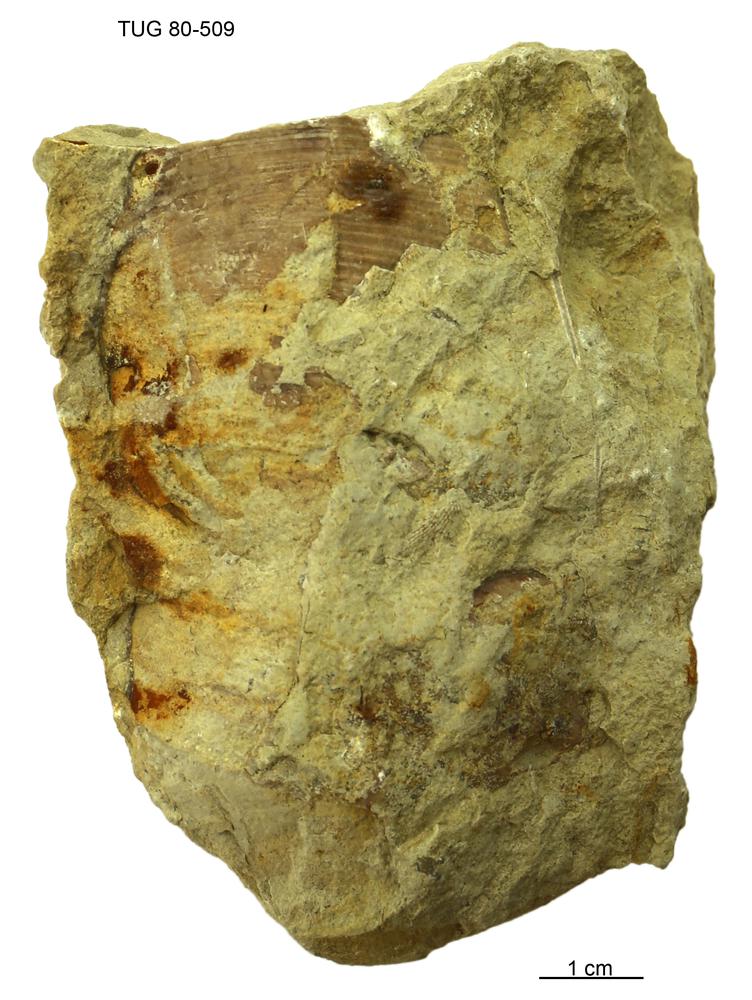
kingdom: Animalia
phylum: Mollusca
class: Cephalopoda
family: Protophragmoceratidae
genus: Protophragmoceras
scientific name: Protophragmoceras
